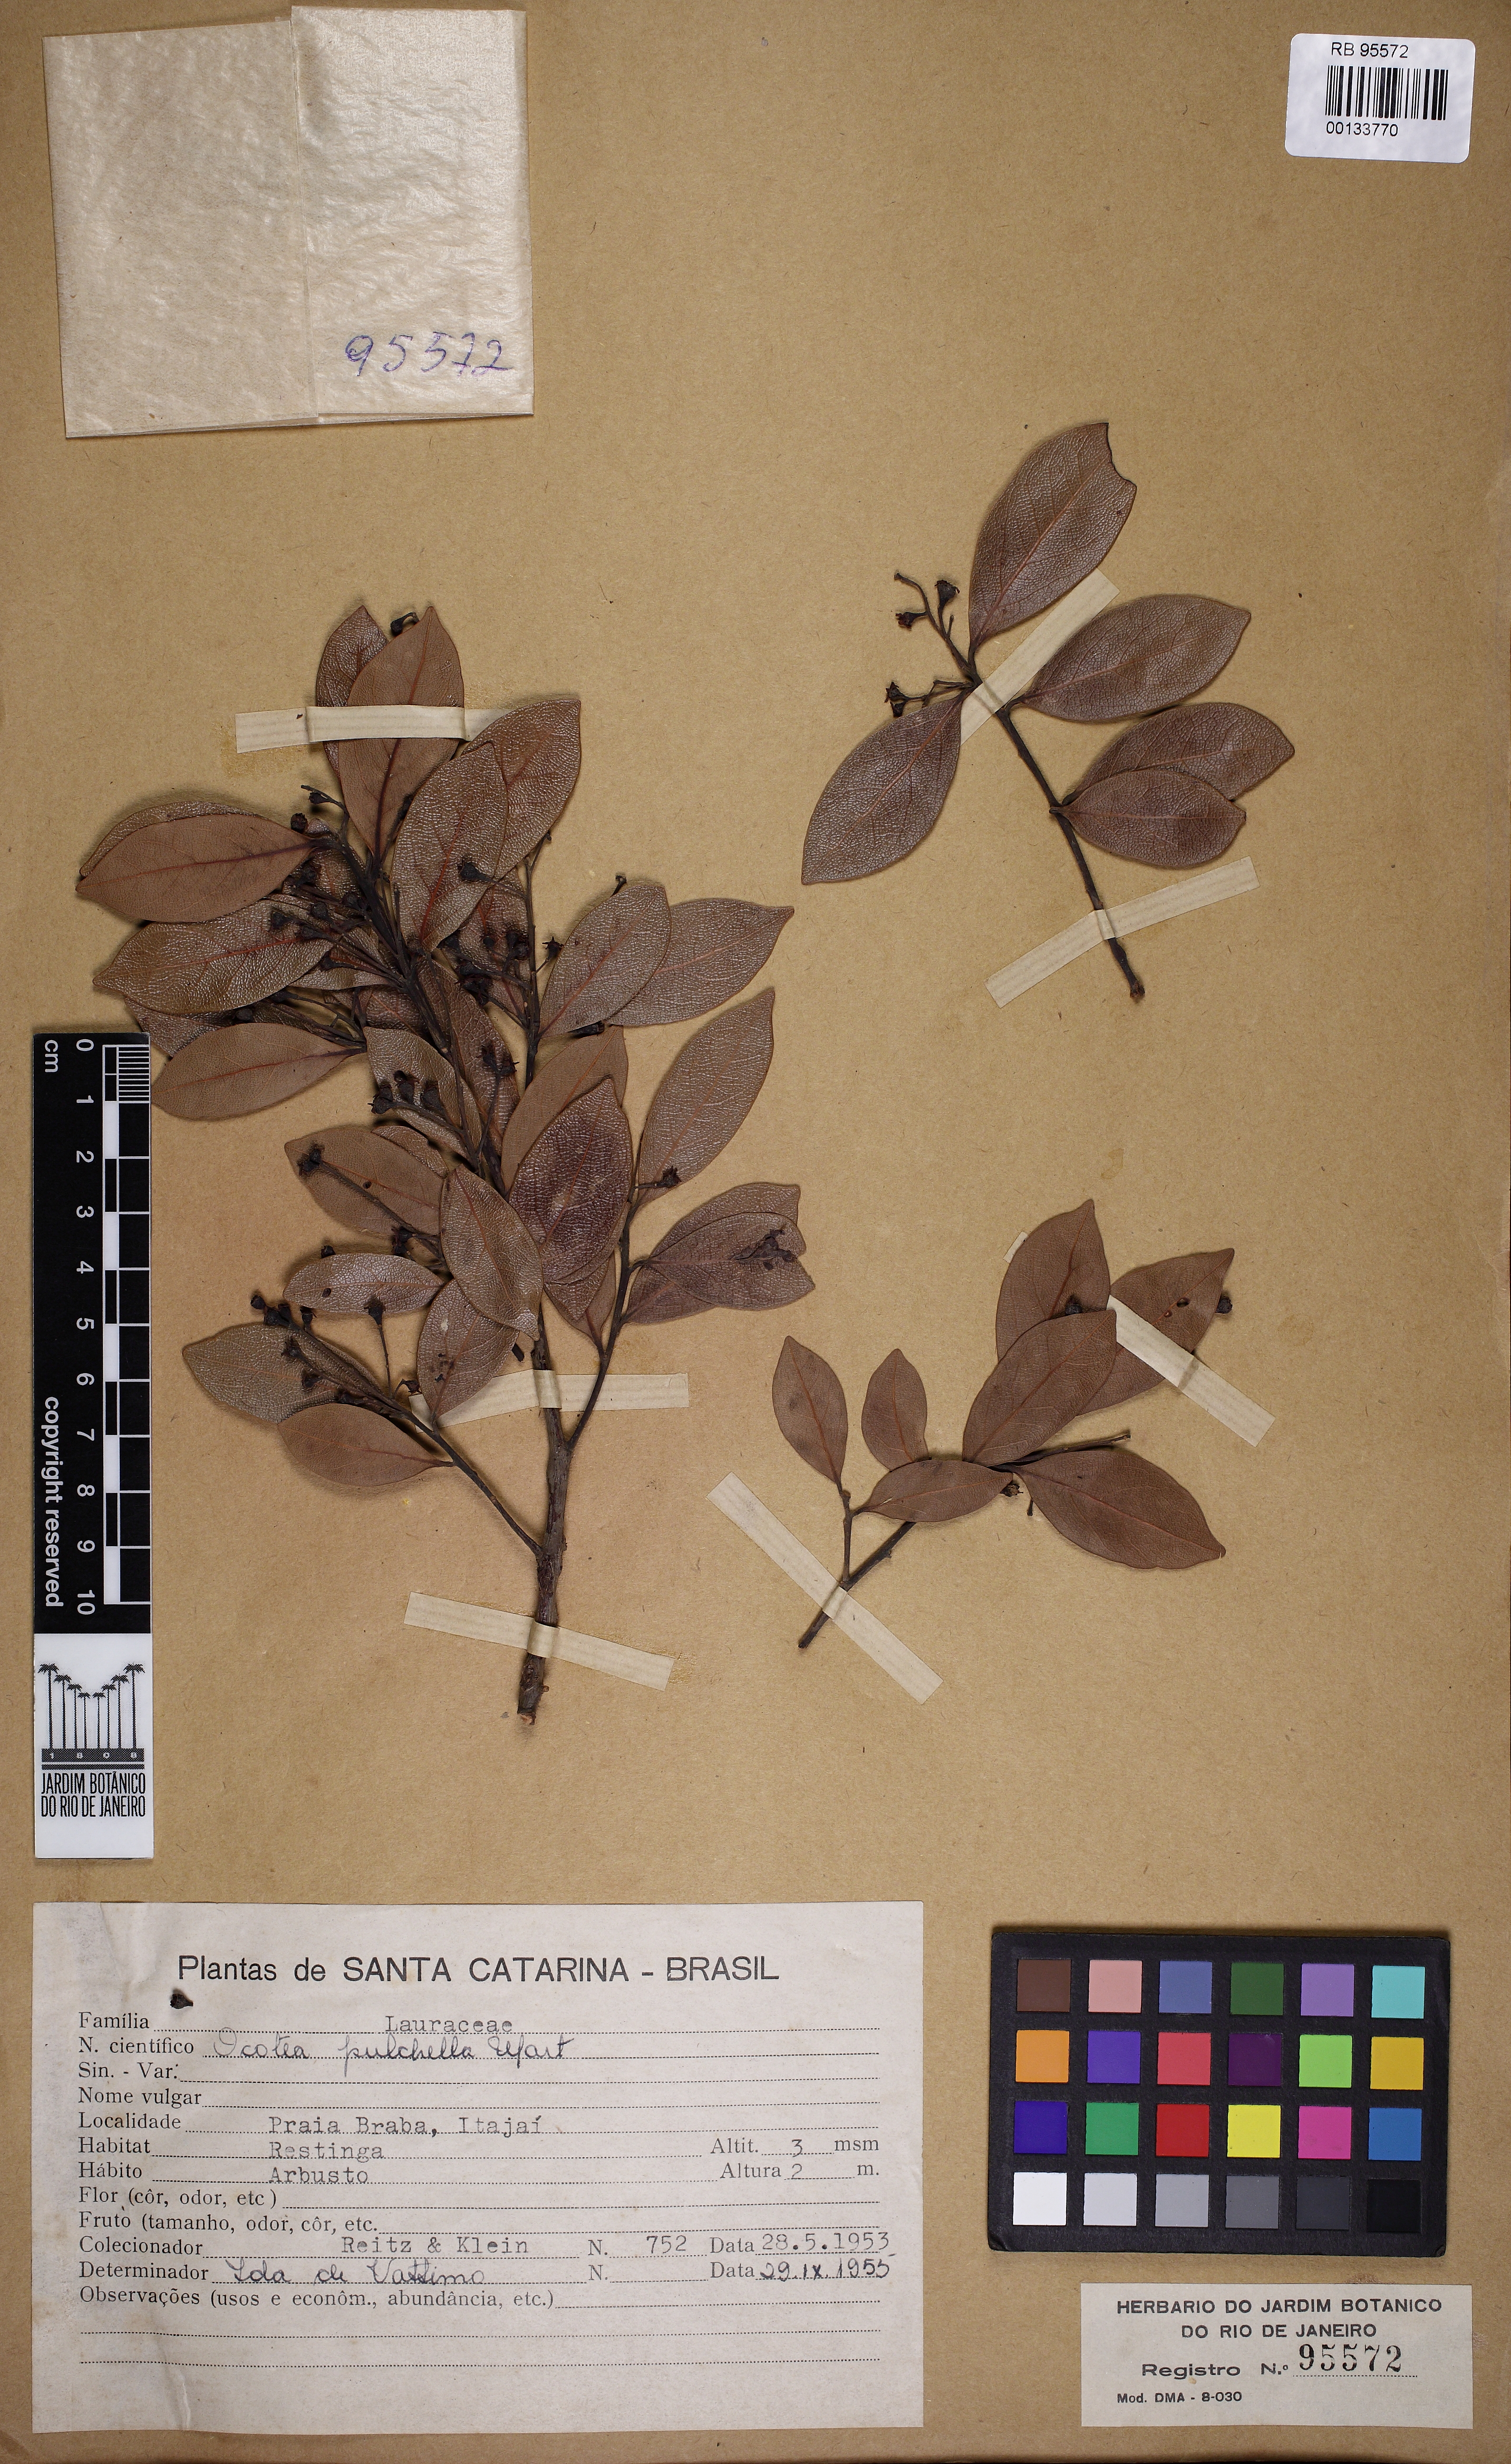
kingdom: Plantae
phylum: Tracheophyta
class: Magnoliopsida
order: Laurales
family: Lauraceae
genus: Mespilodaphne
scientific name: Mespilodaphne pulchella
